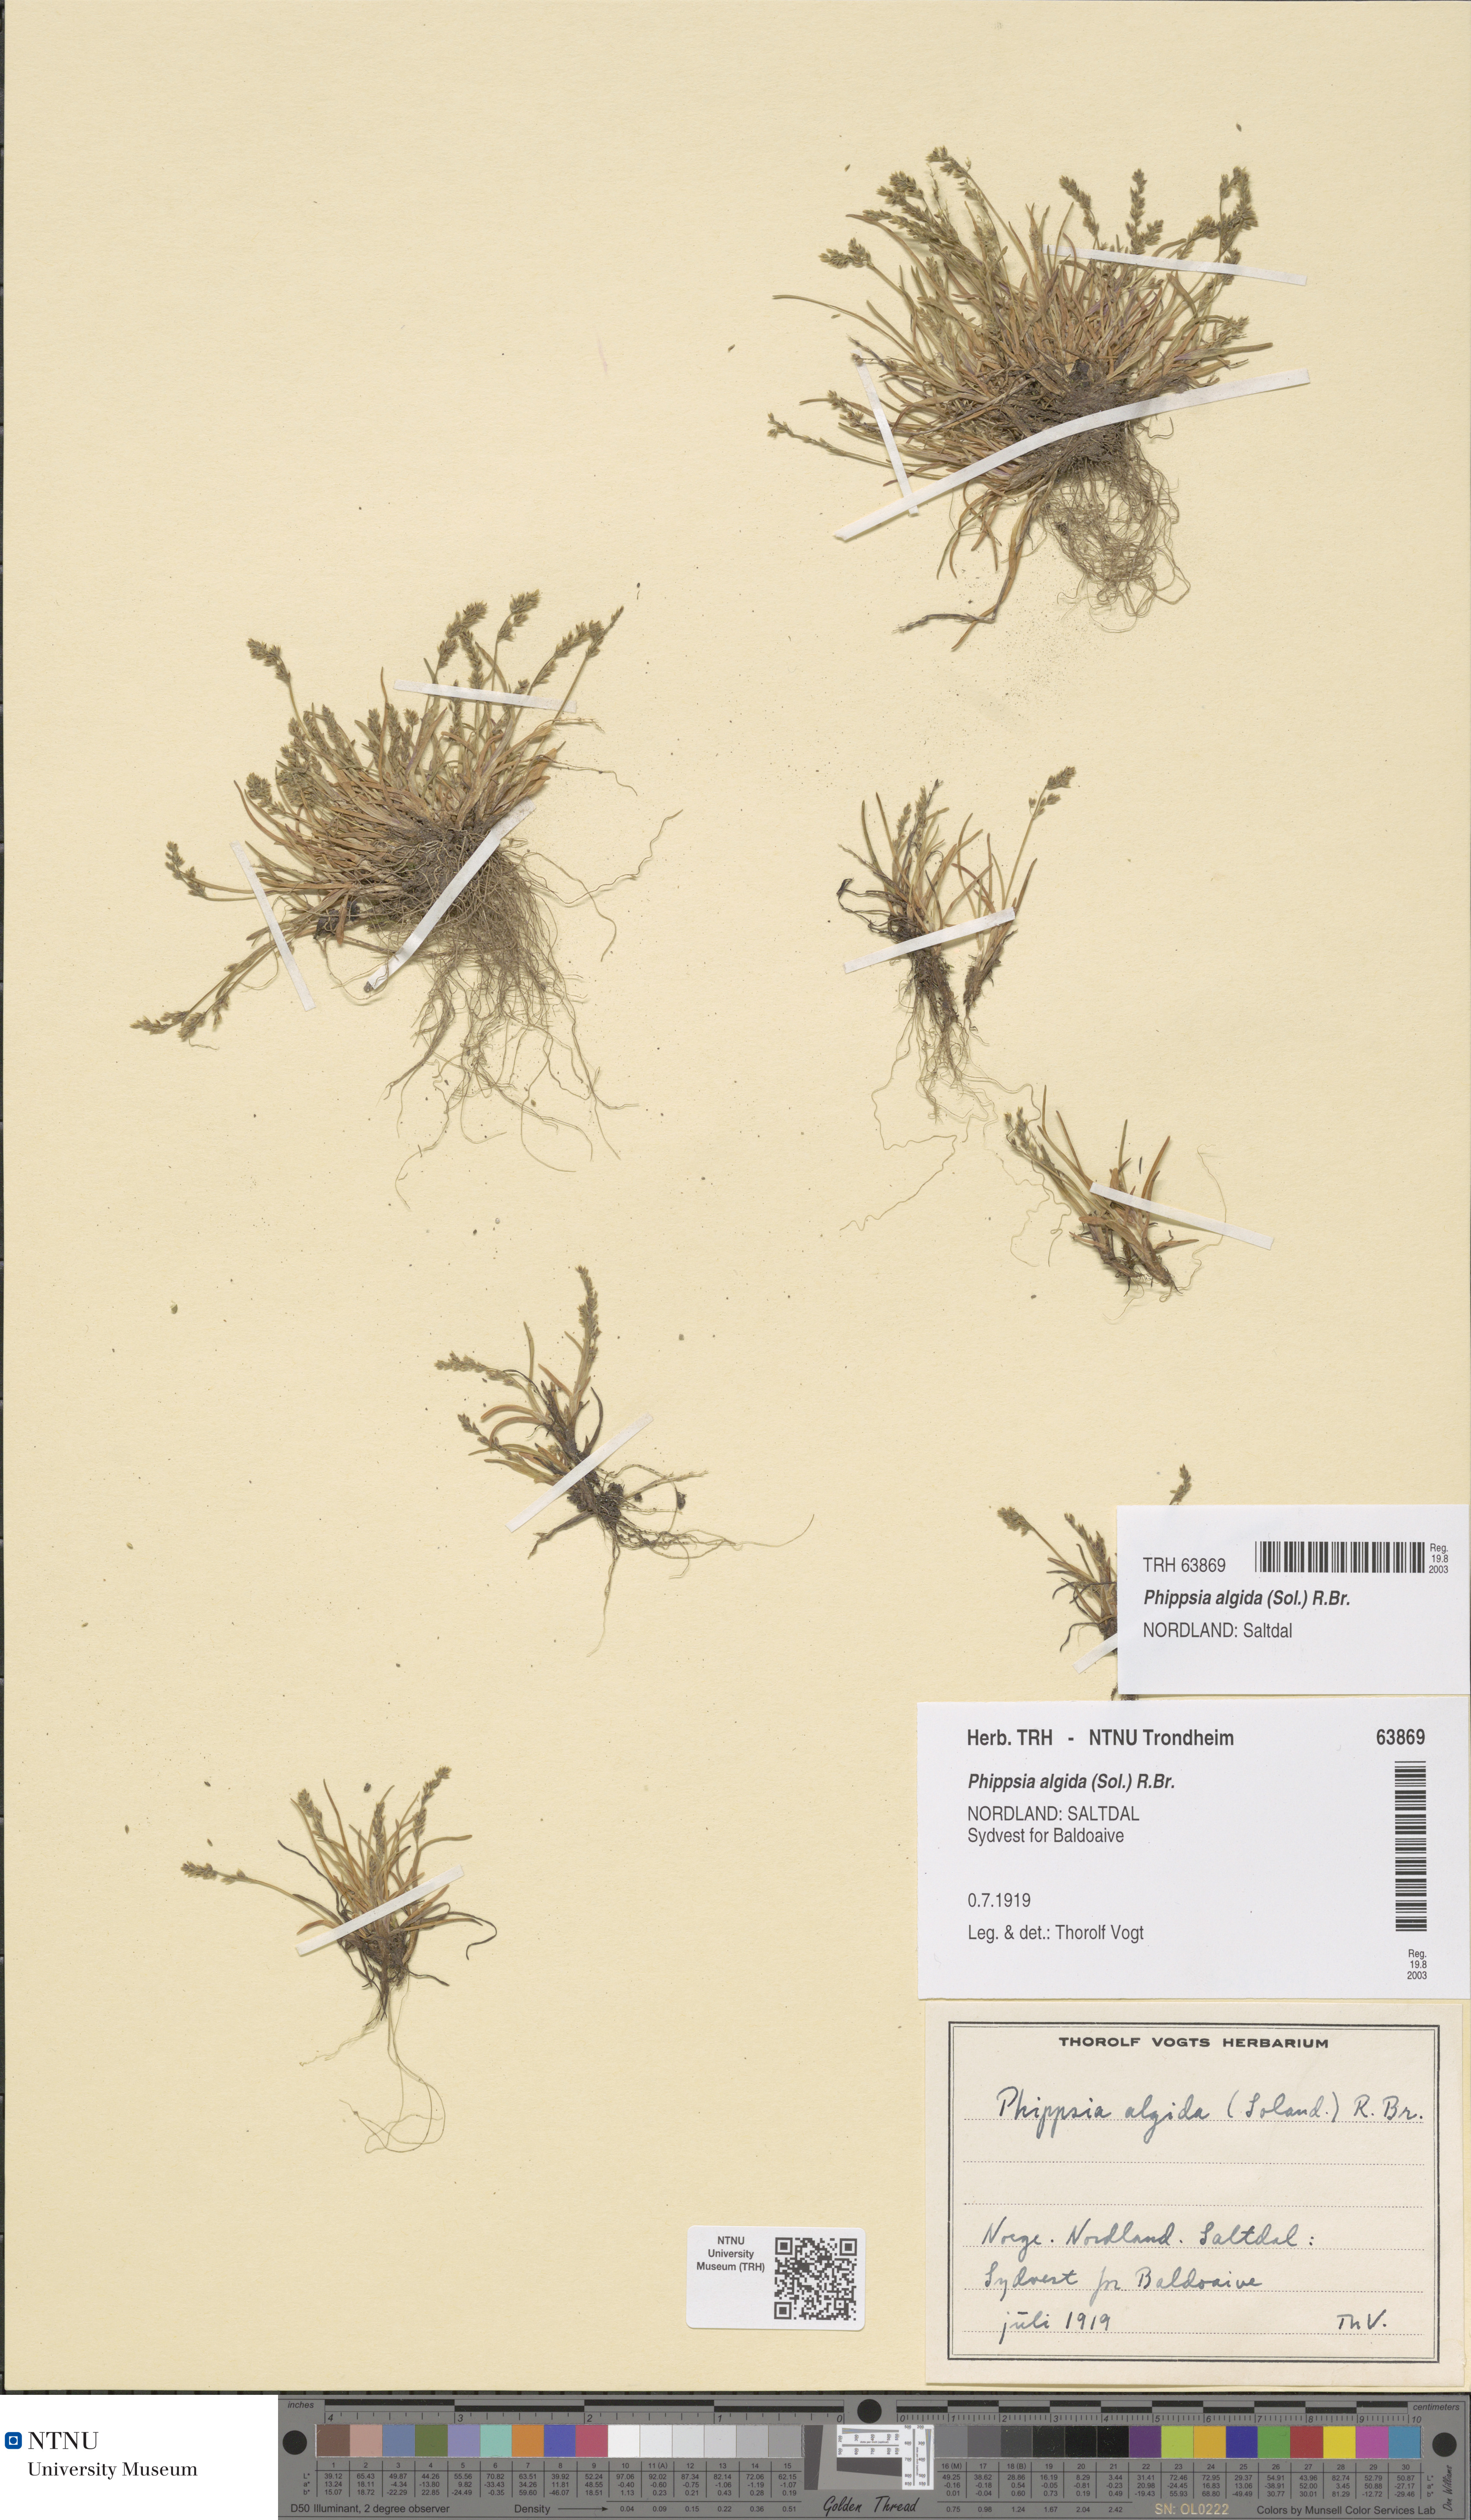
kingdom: Plantae
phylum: Tracheophyta
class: Liliopsida
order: Poales
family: Poaceae
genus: Phippsia
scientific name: Phippsia algida
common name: Ice grass
